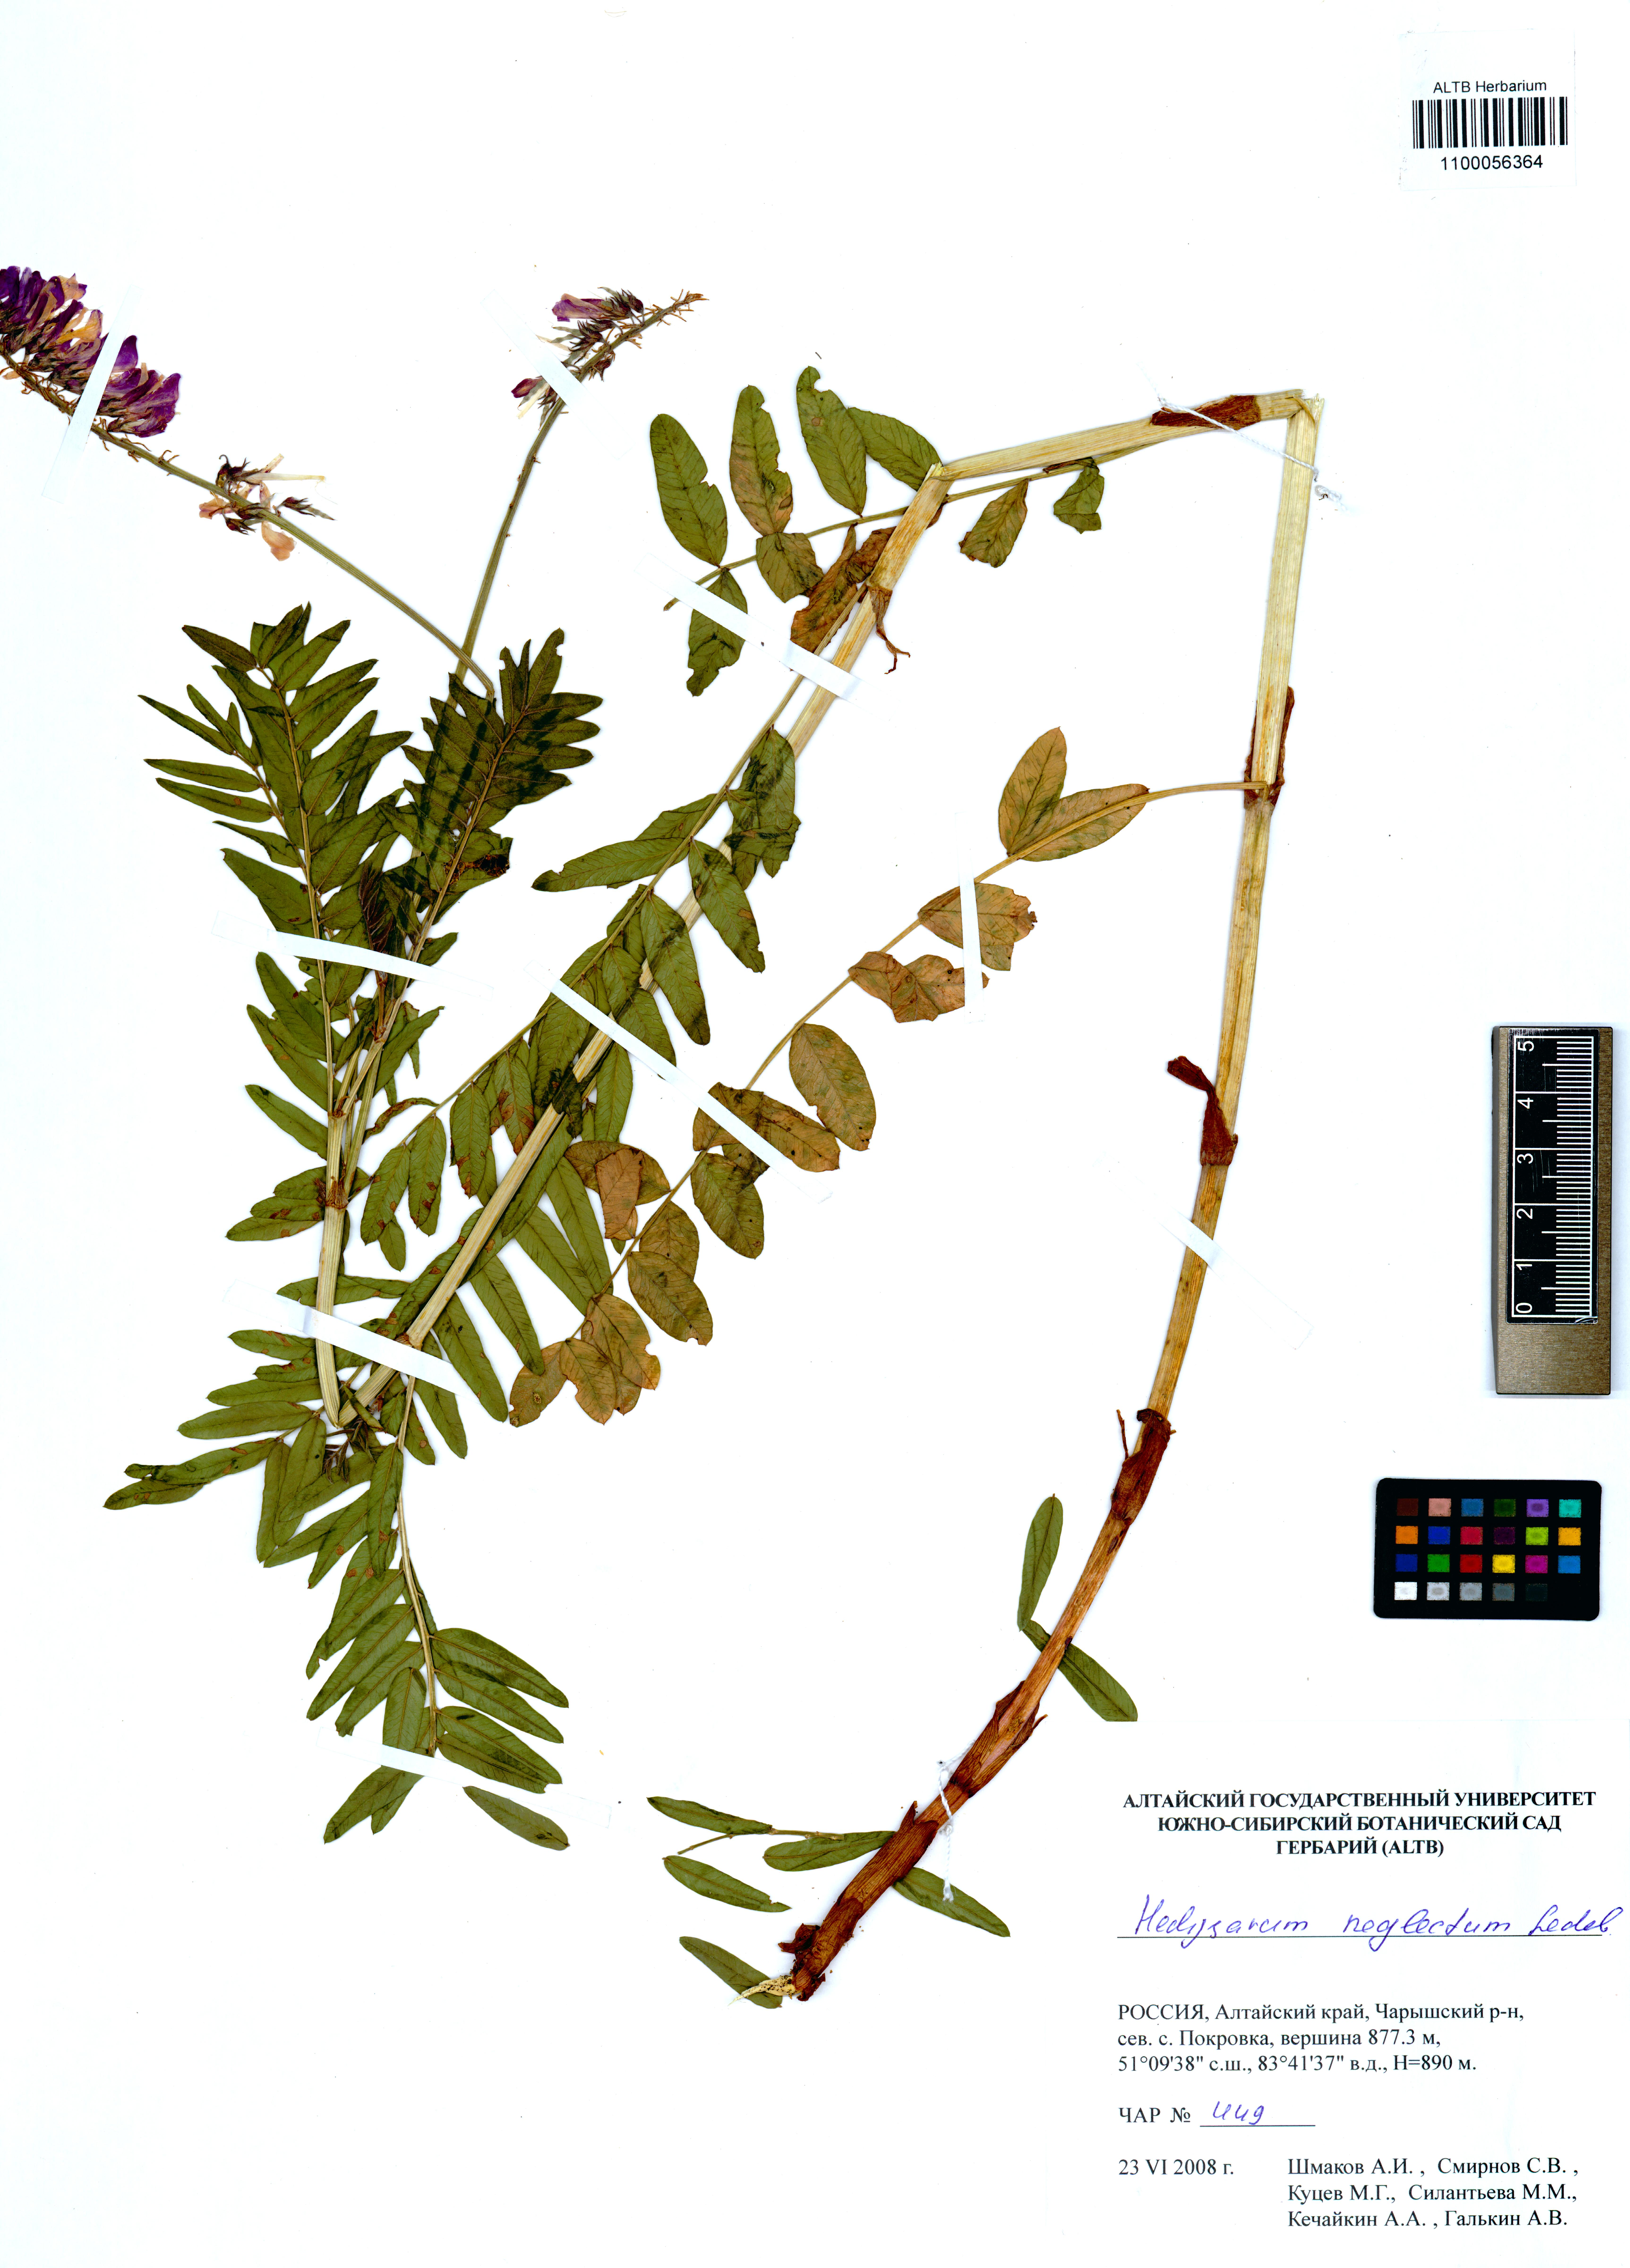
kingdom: Plantae
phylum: Tracheophyta
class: Magnoliopsida
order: Fabales
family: Fabaceae
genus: Hedysarum
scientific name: Hedysarum neglectum
